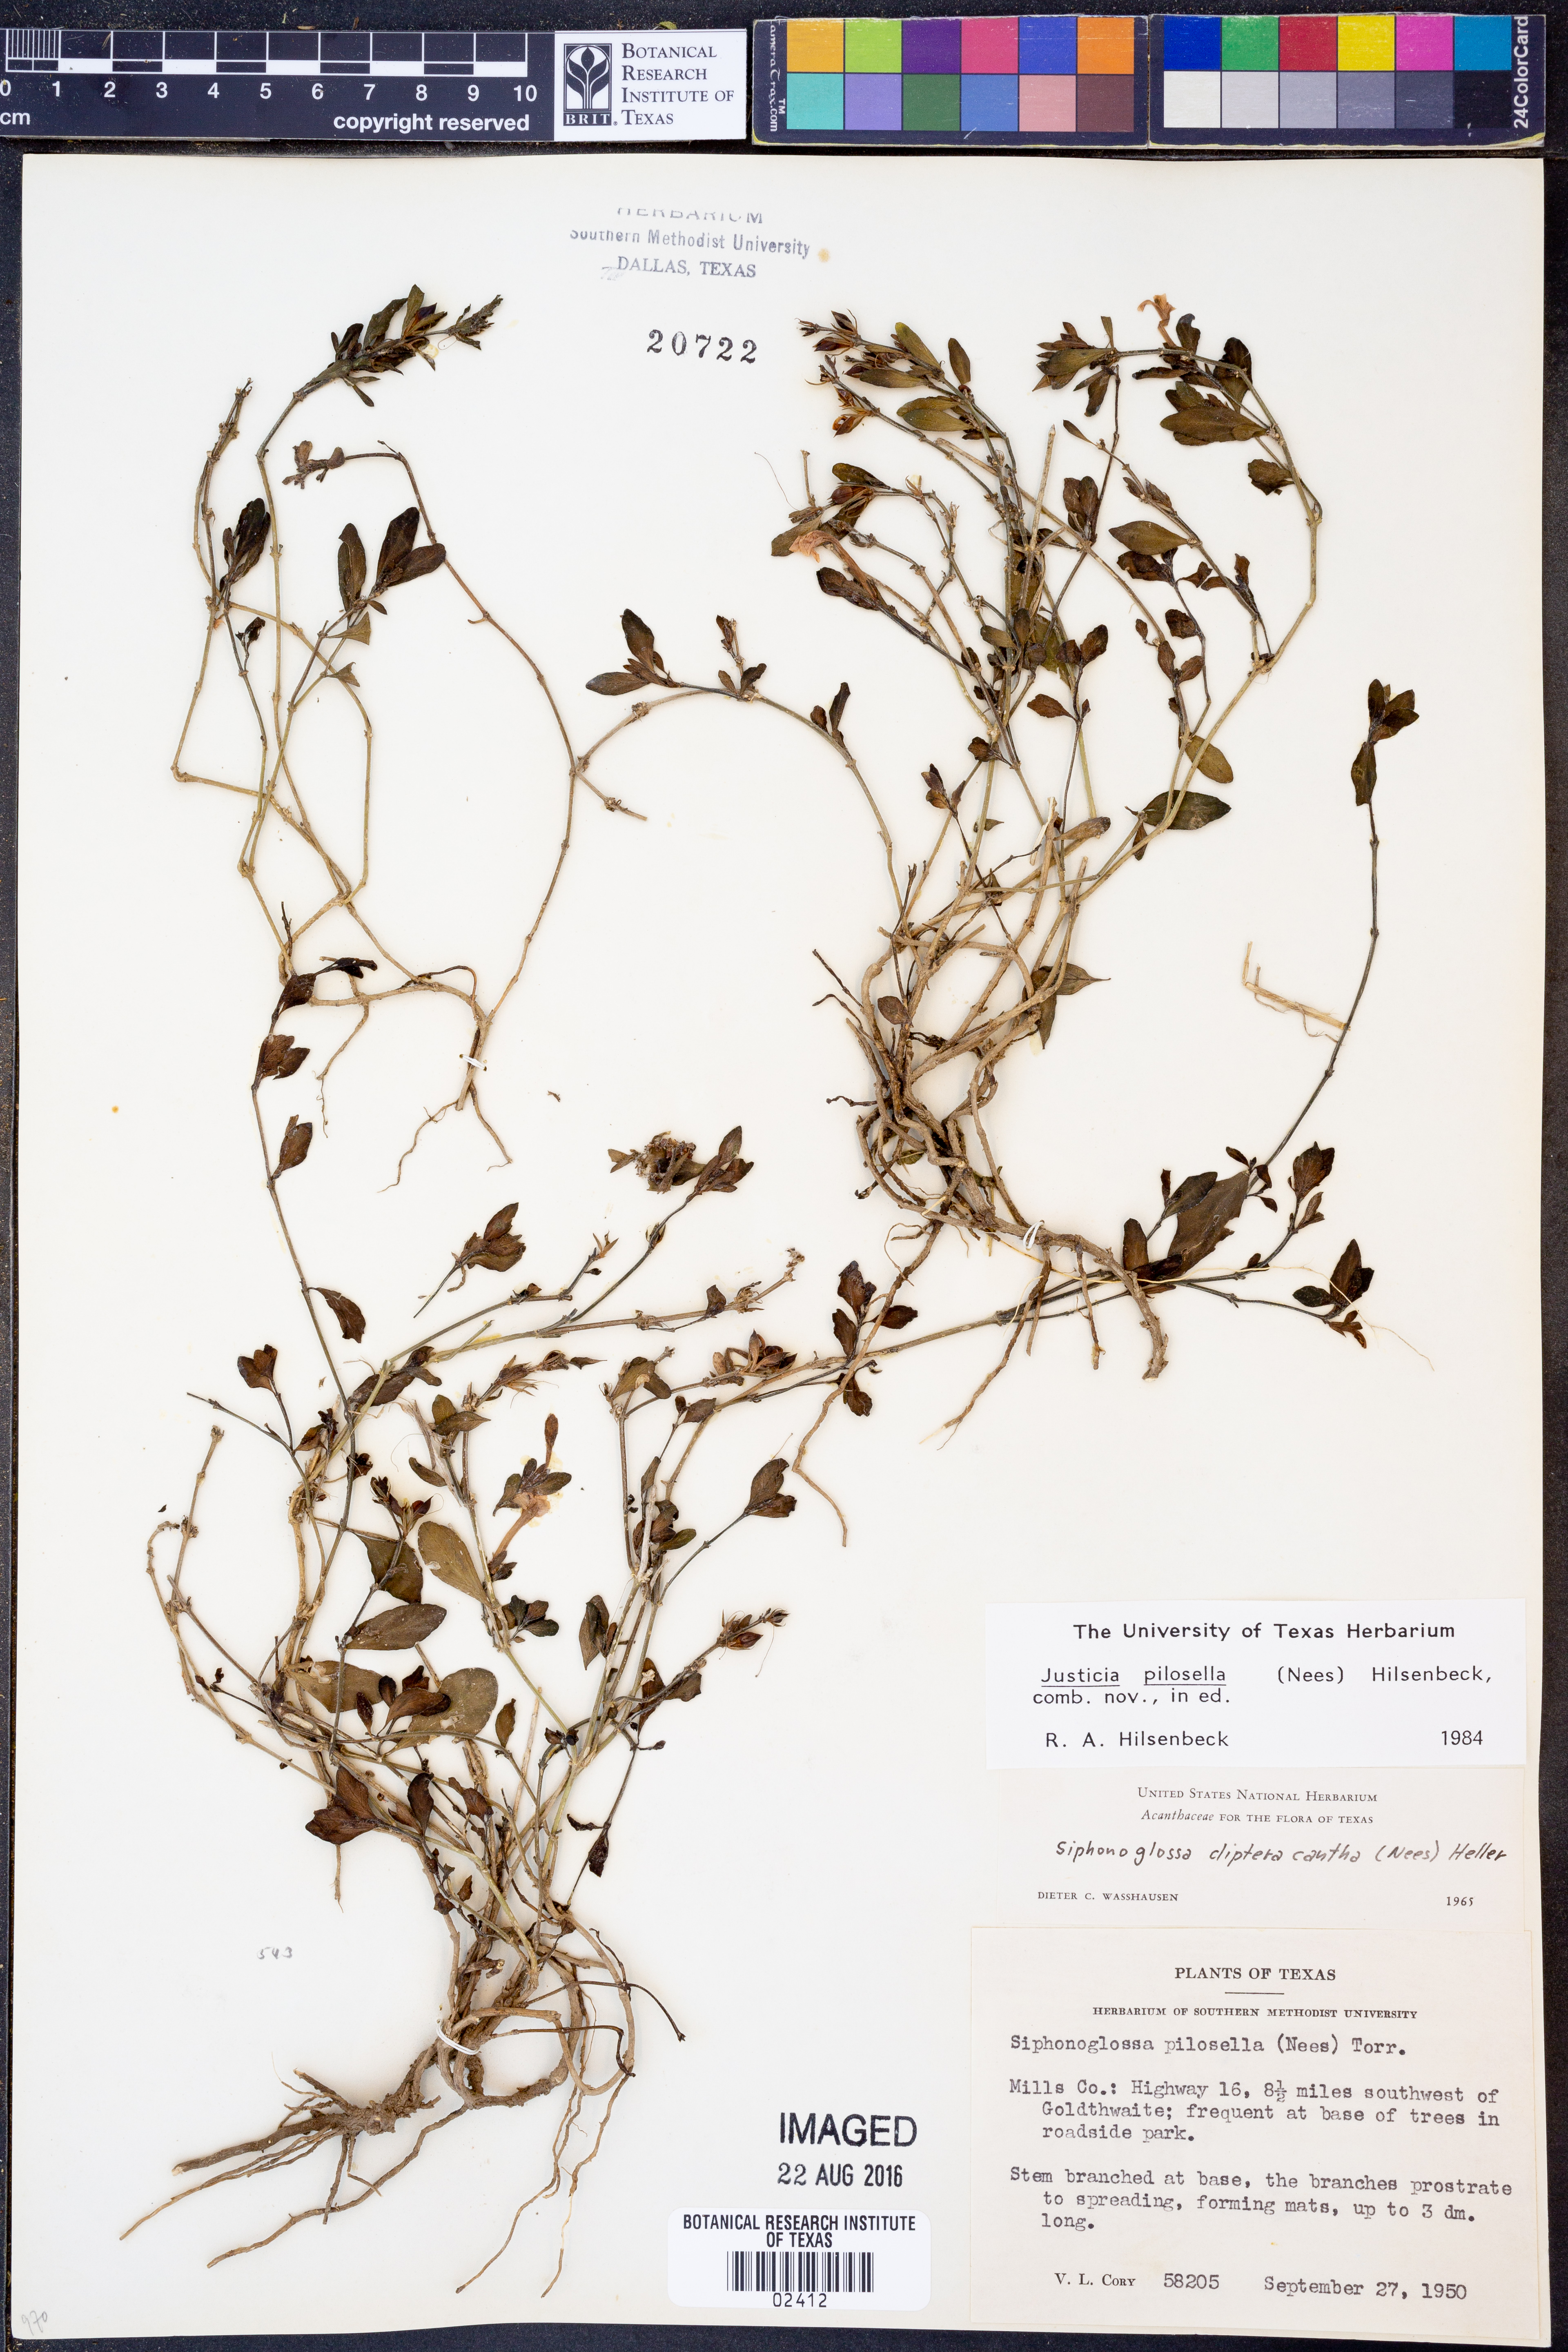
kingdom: Plantae
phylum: Tracheophyta
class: Magnoliopsida
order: Lamiales
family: Acanthaceae
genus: Justicia
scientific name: Justicia pilosella
